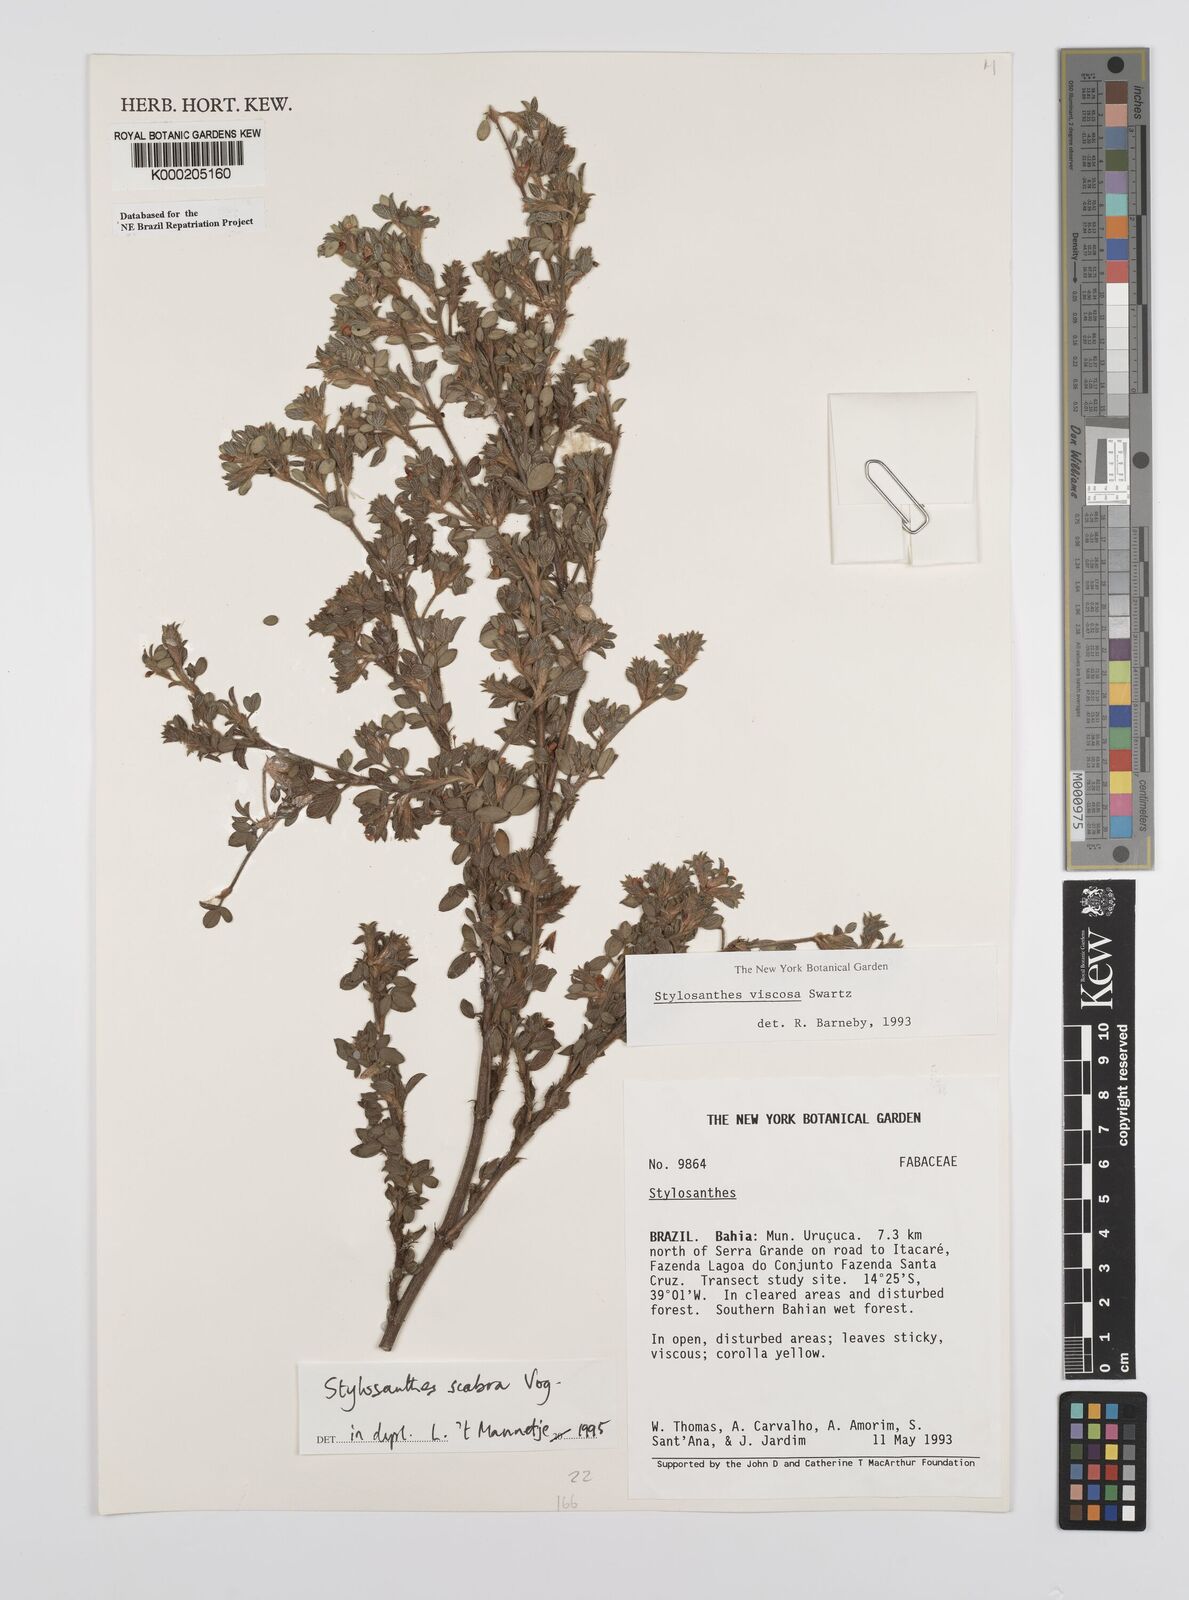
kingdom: Plantae
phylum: Tracheophyta
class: Magnoliopsida
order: Fabales
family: Fabaceae
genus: Stylosanthes
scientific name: Stylosanthes scabra
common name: Pencilflower
